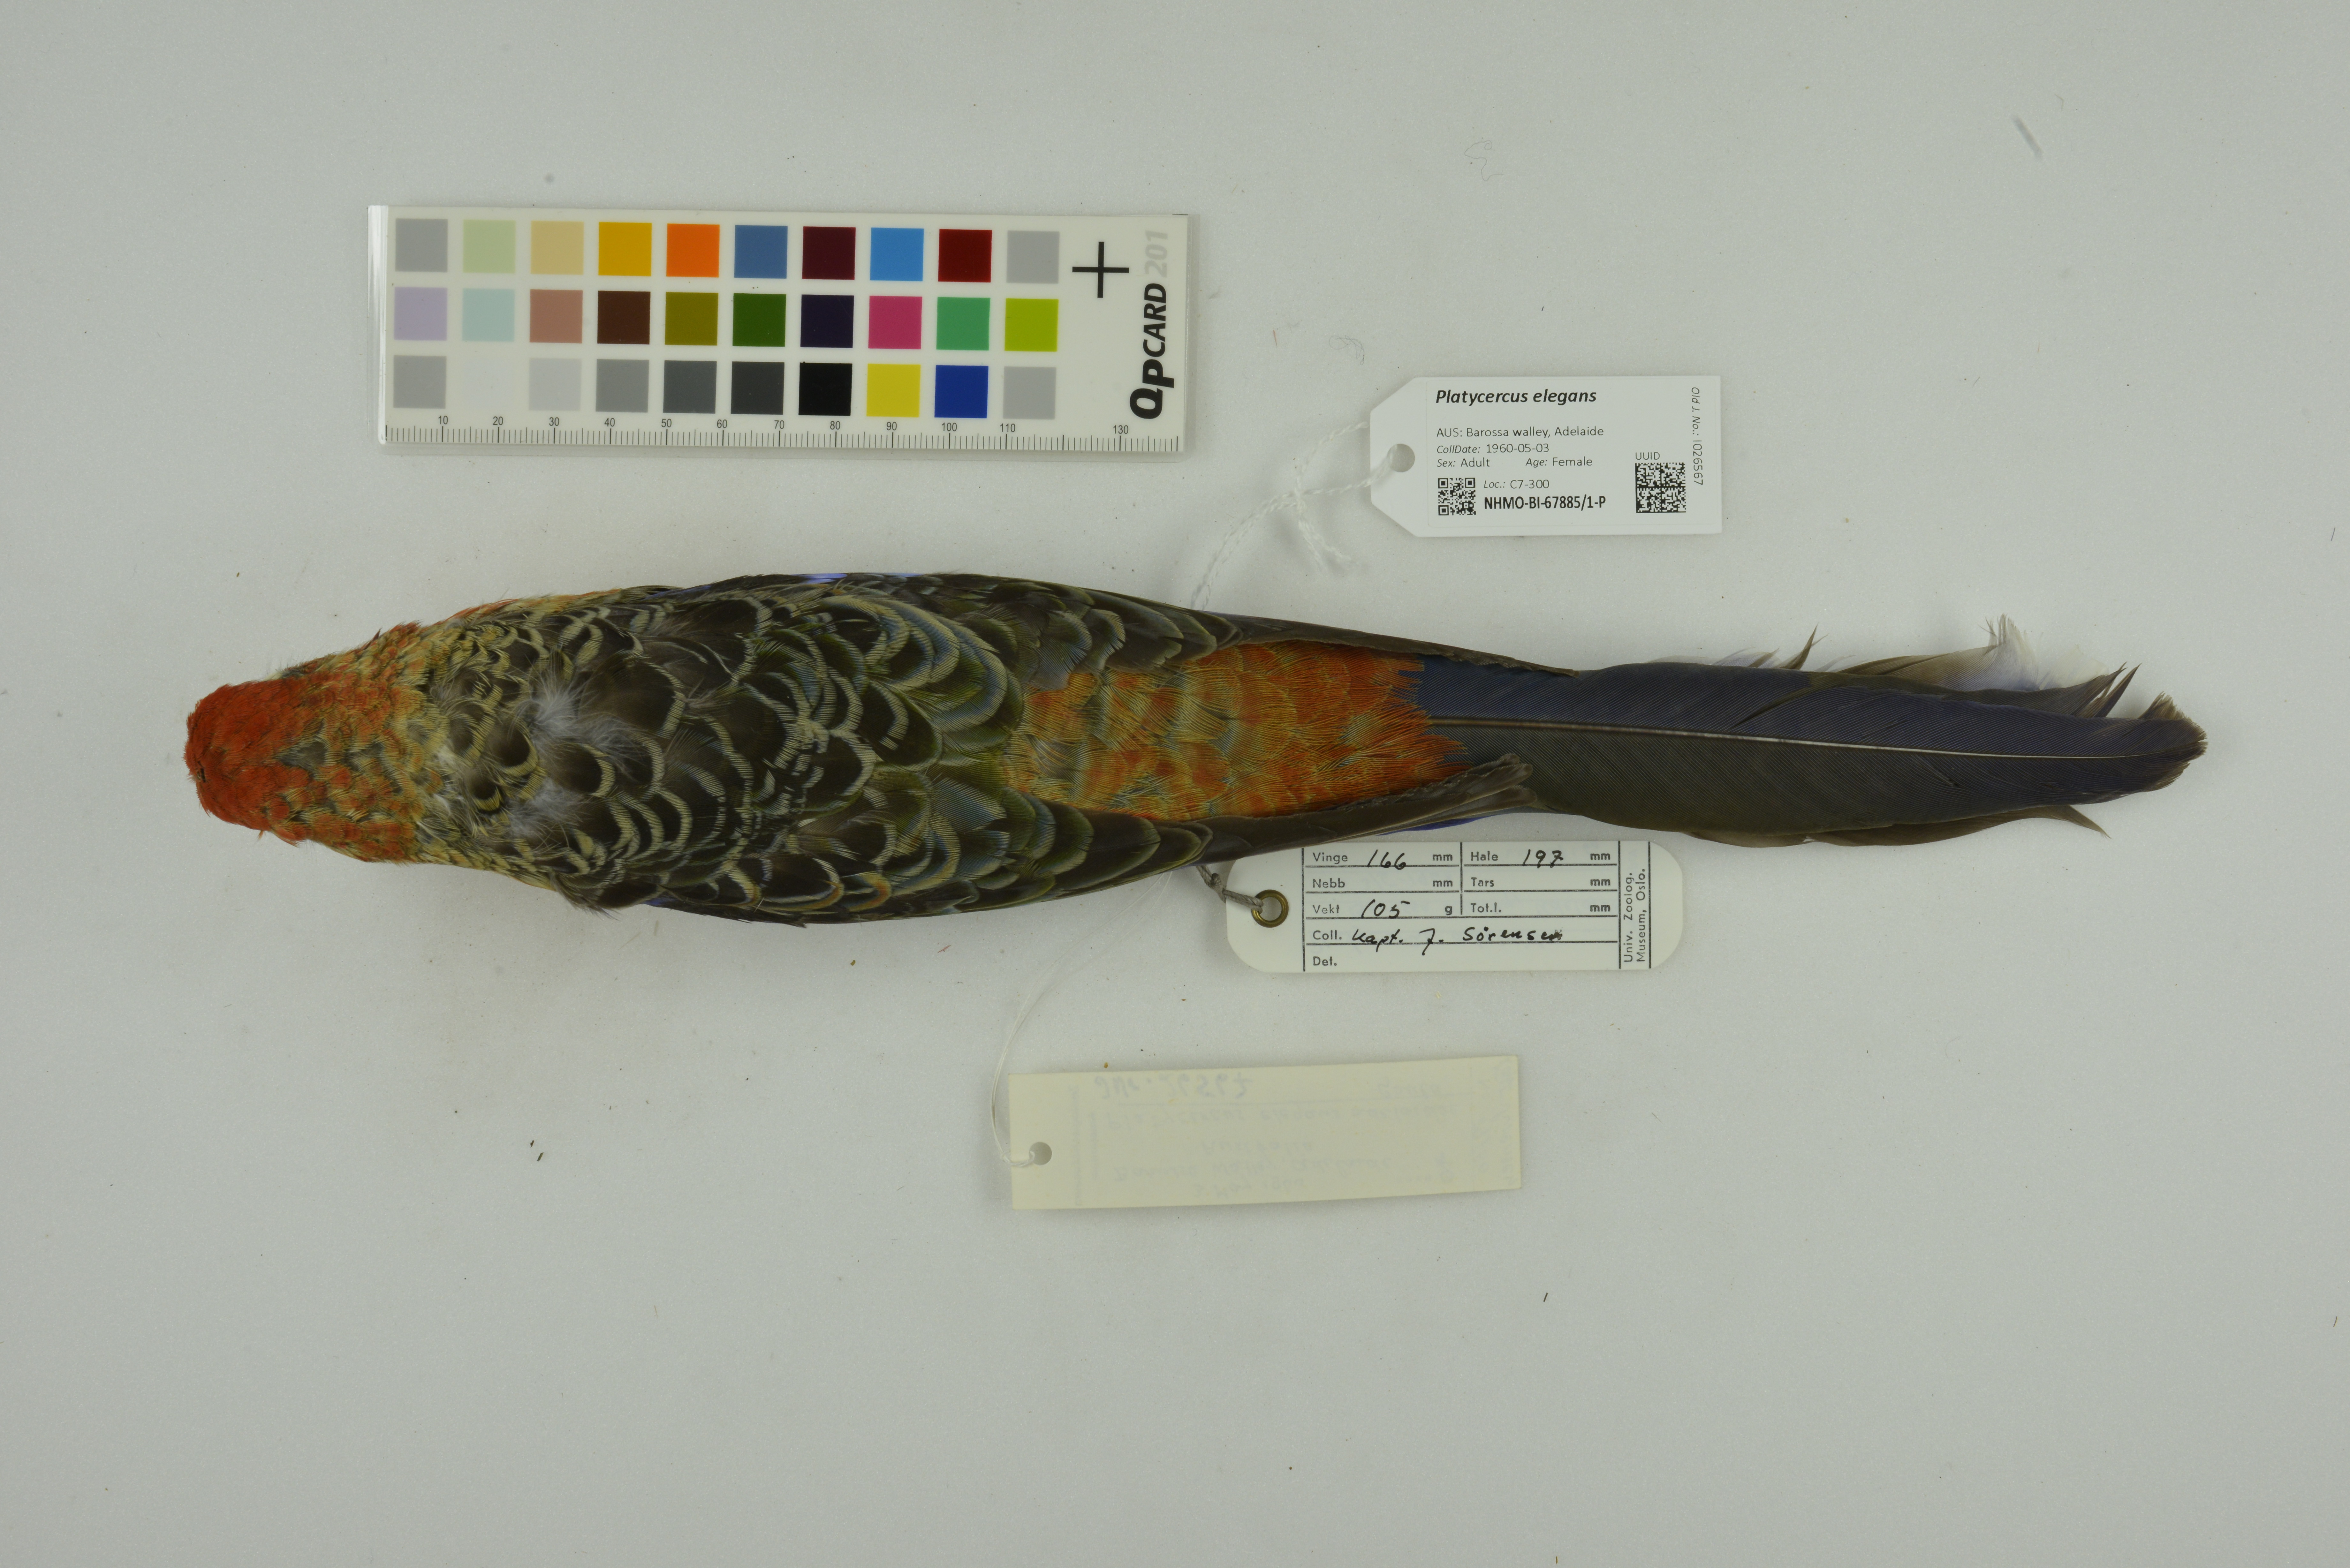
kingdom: Animalia
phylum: Chordata
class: Aves
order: Psittaciformes
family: Psittacidae
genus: Platycercus
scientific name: Platycercus elegans
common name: Crimson rosella
